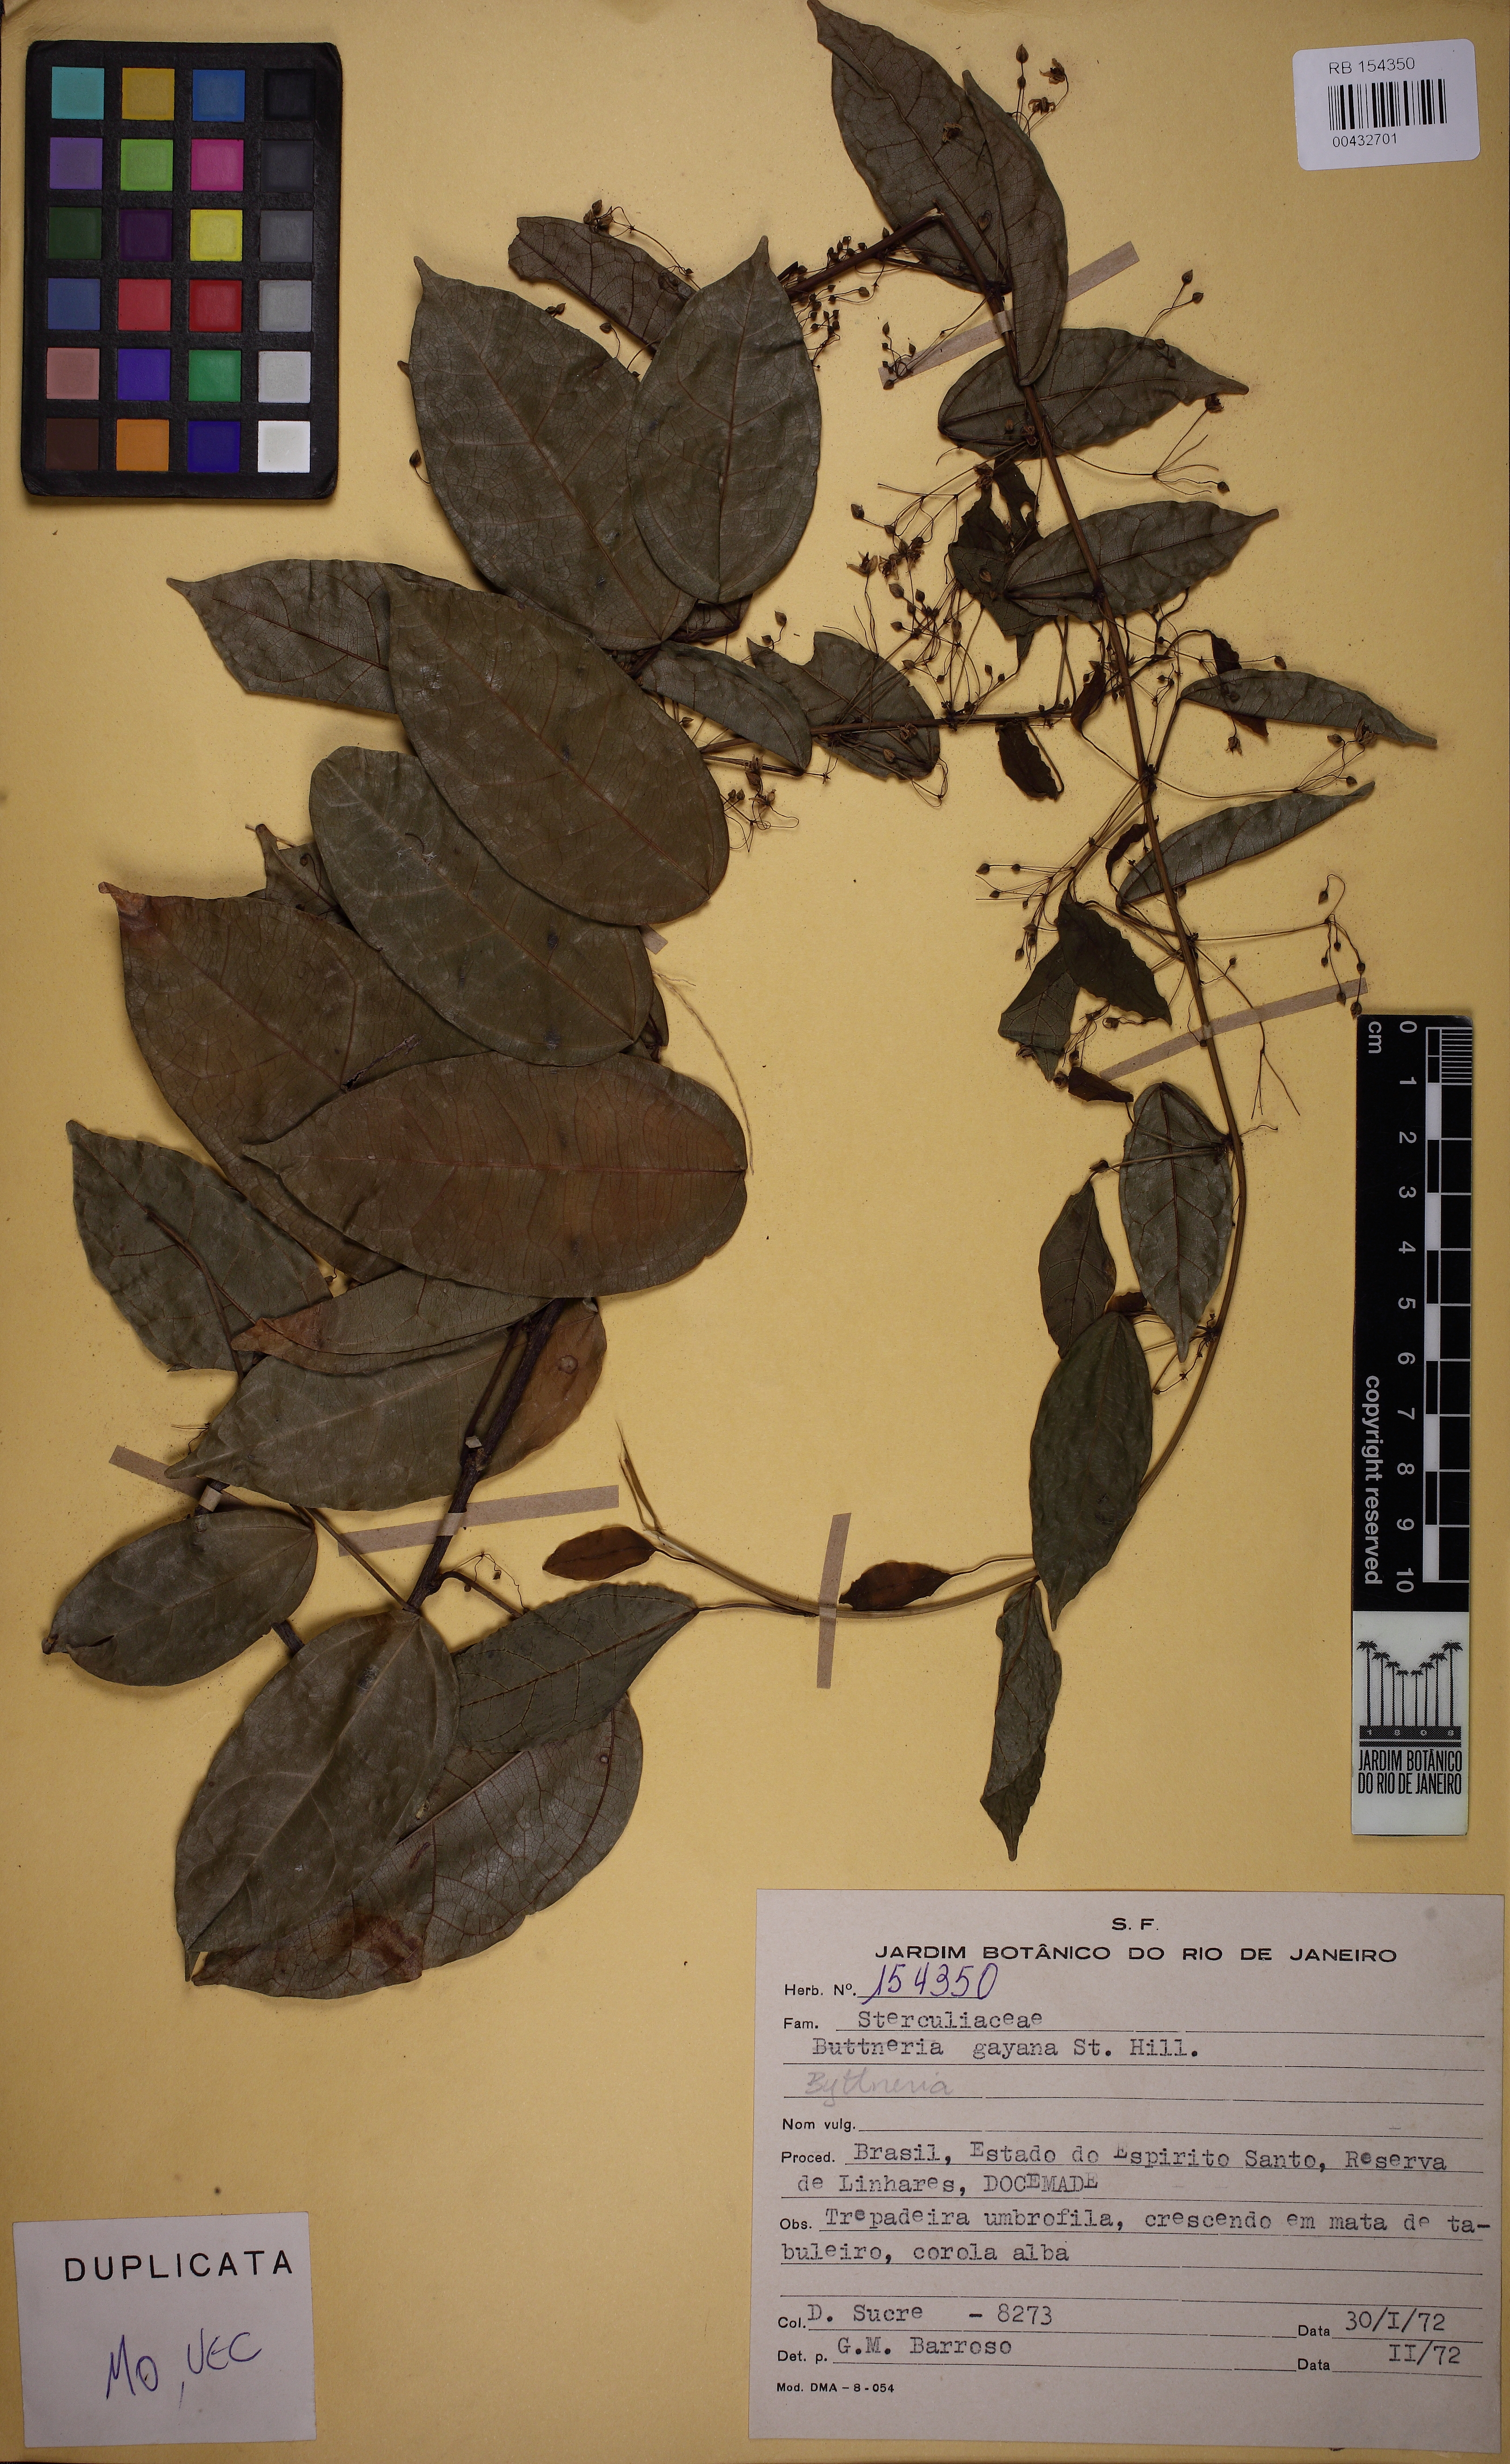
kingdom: Plantae
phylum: Tracheophyta
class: Magnoliopsida
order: Malvales
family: Malvaceae
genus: Byttneria
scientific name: Byttneria gayana
